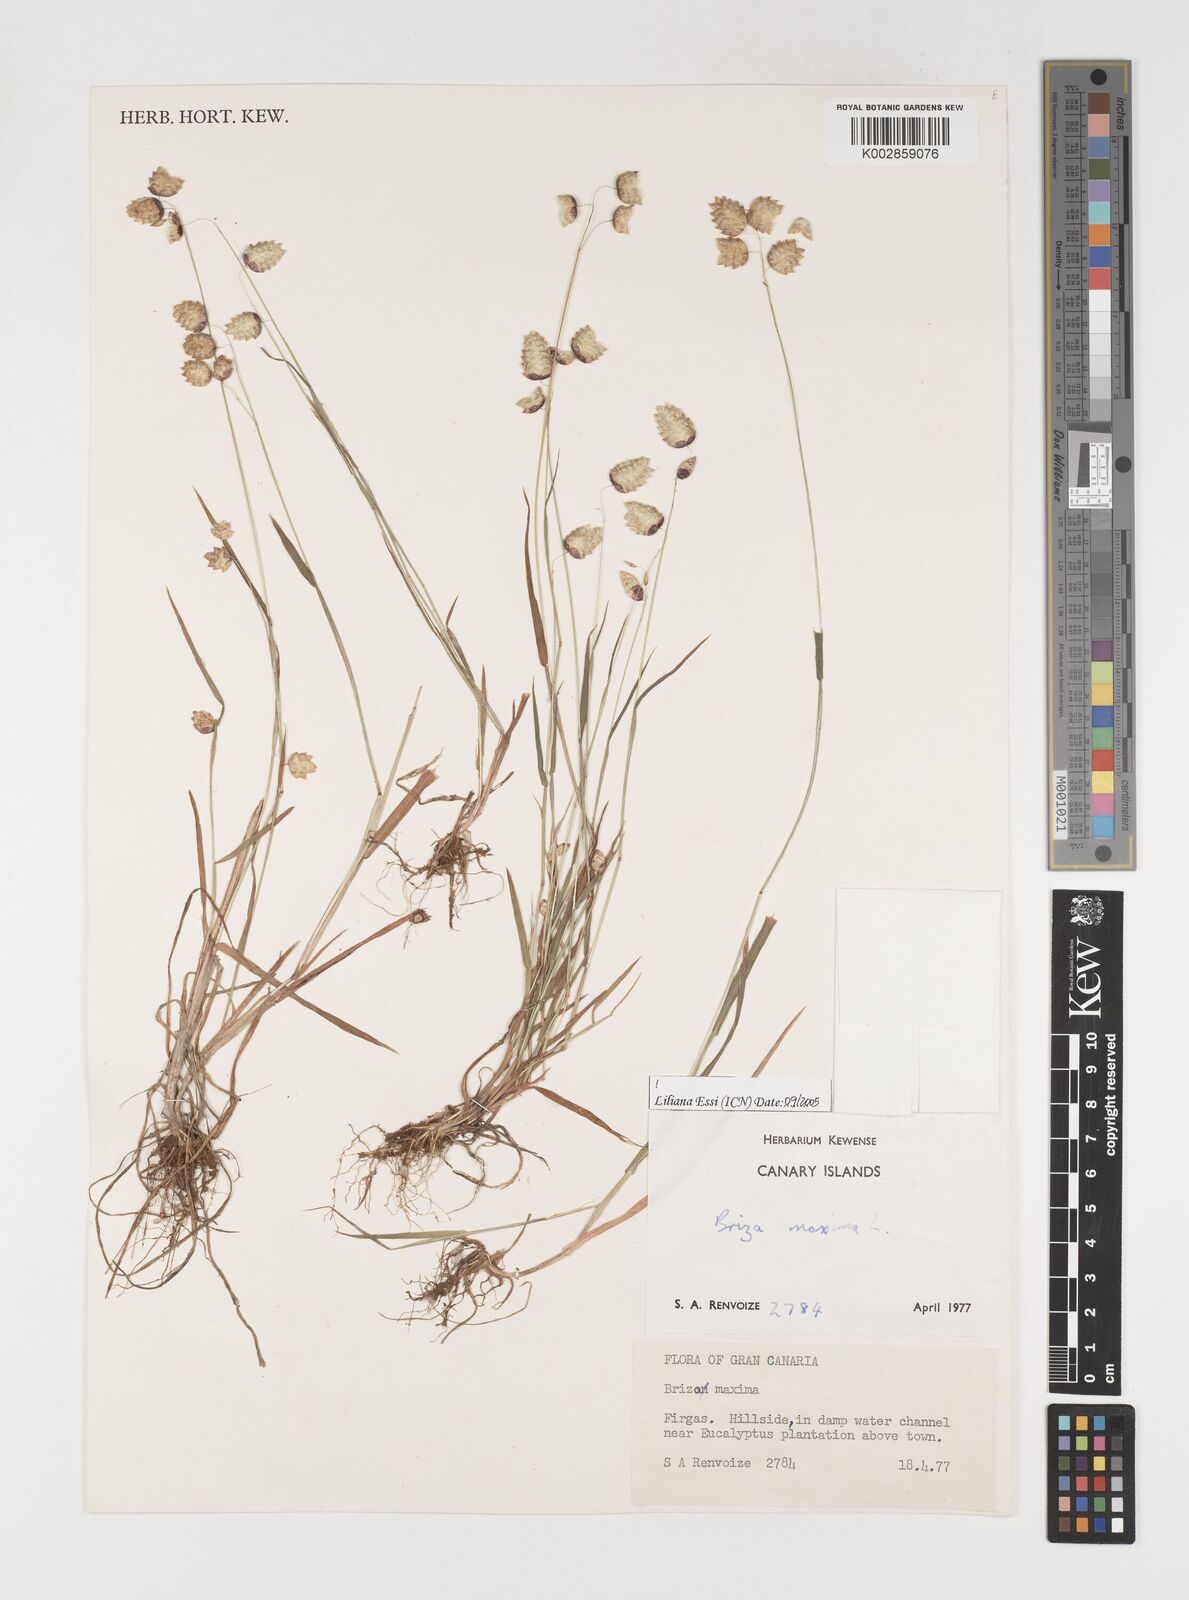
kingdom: Plantae
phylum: Tracheophyta
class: Liliopsida
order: Poales
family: Poaceae
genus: Briza
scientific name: Briza maxima
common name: Big quakinggrass
